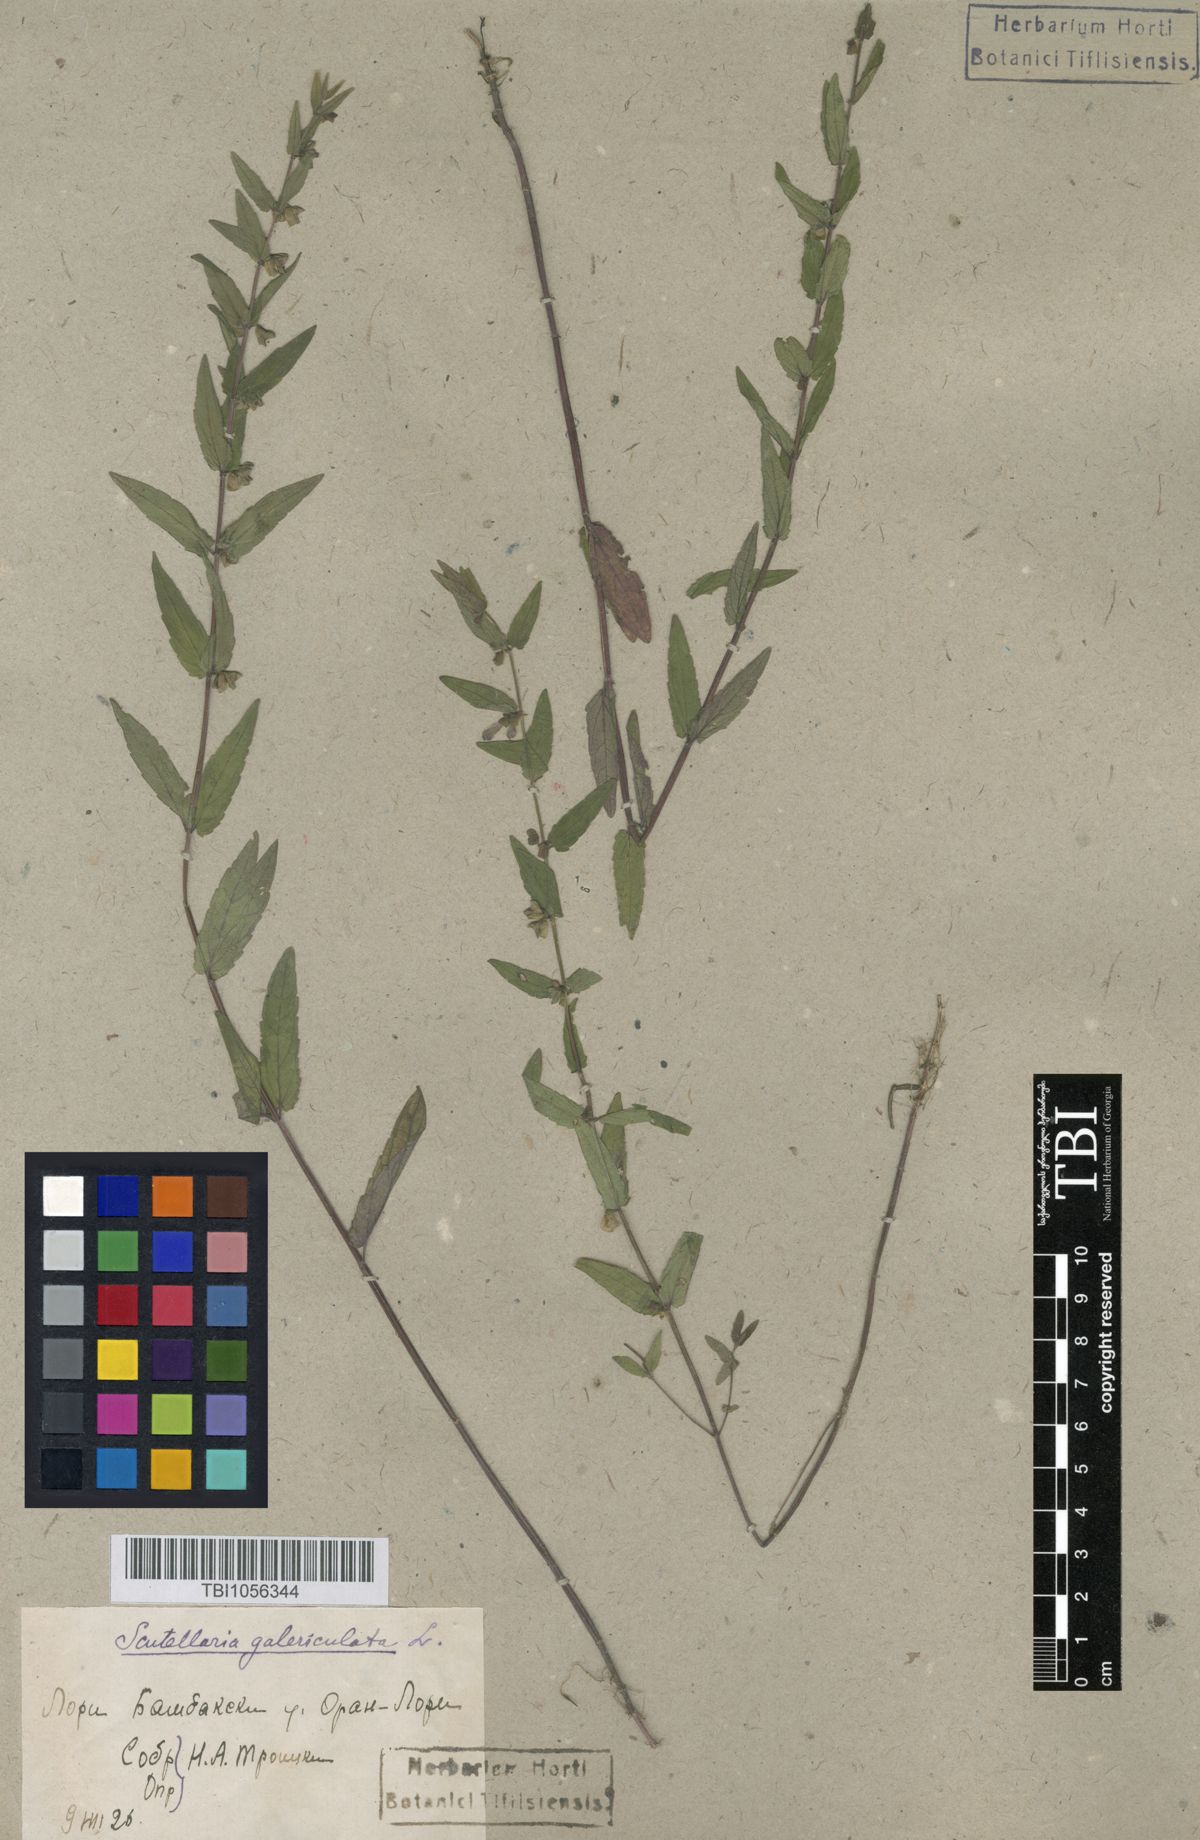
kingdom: Plantae
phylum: Tracheophyta
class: Magnoliopsida
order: Lamiales
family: Lamiaceae
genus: Scutellaria
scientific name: Scutellaria galericulata
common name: Skullcap
